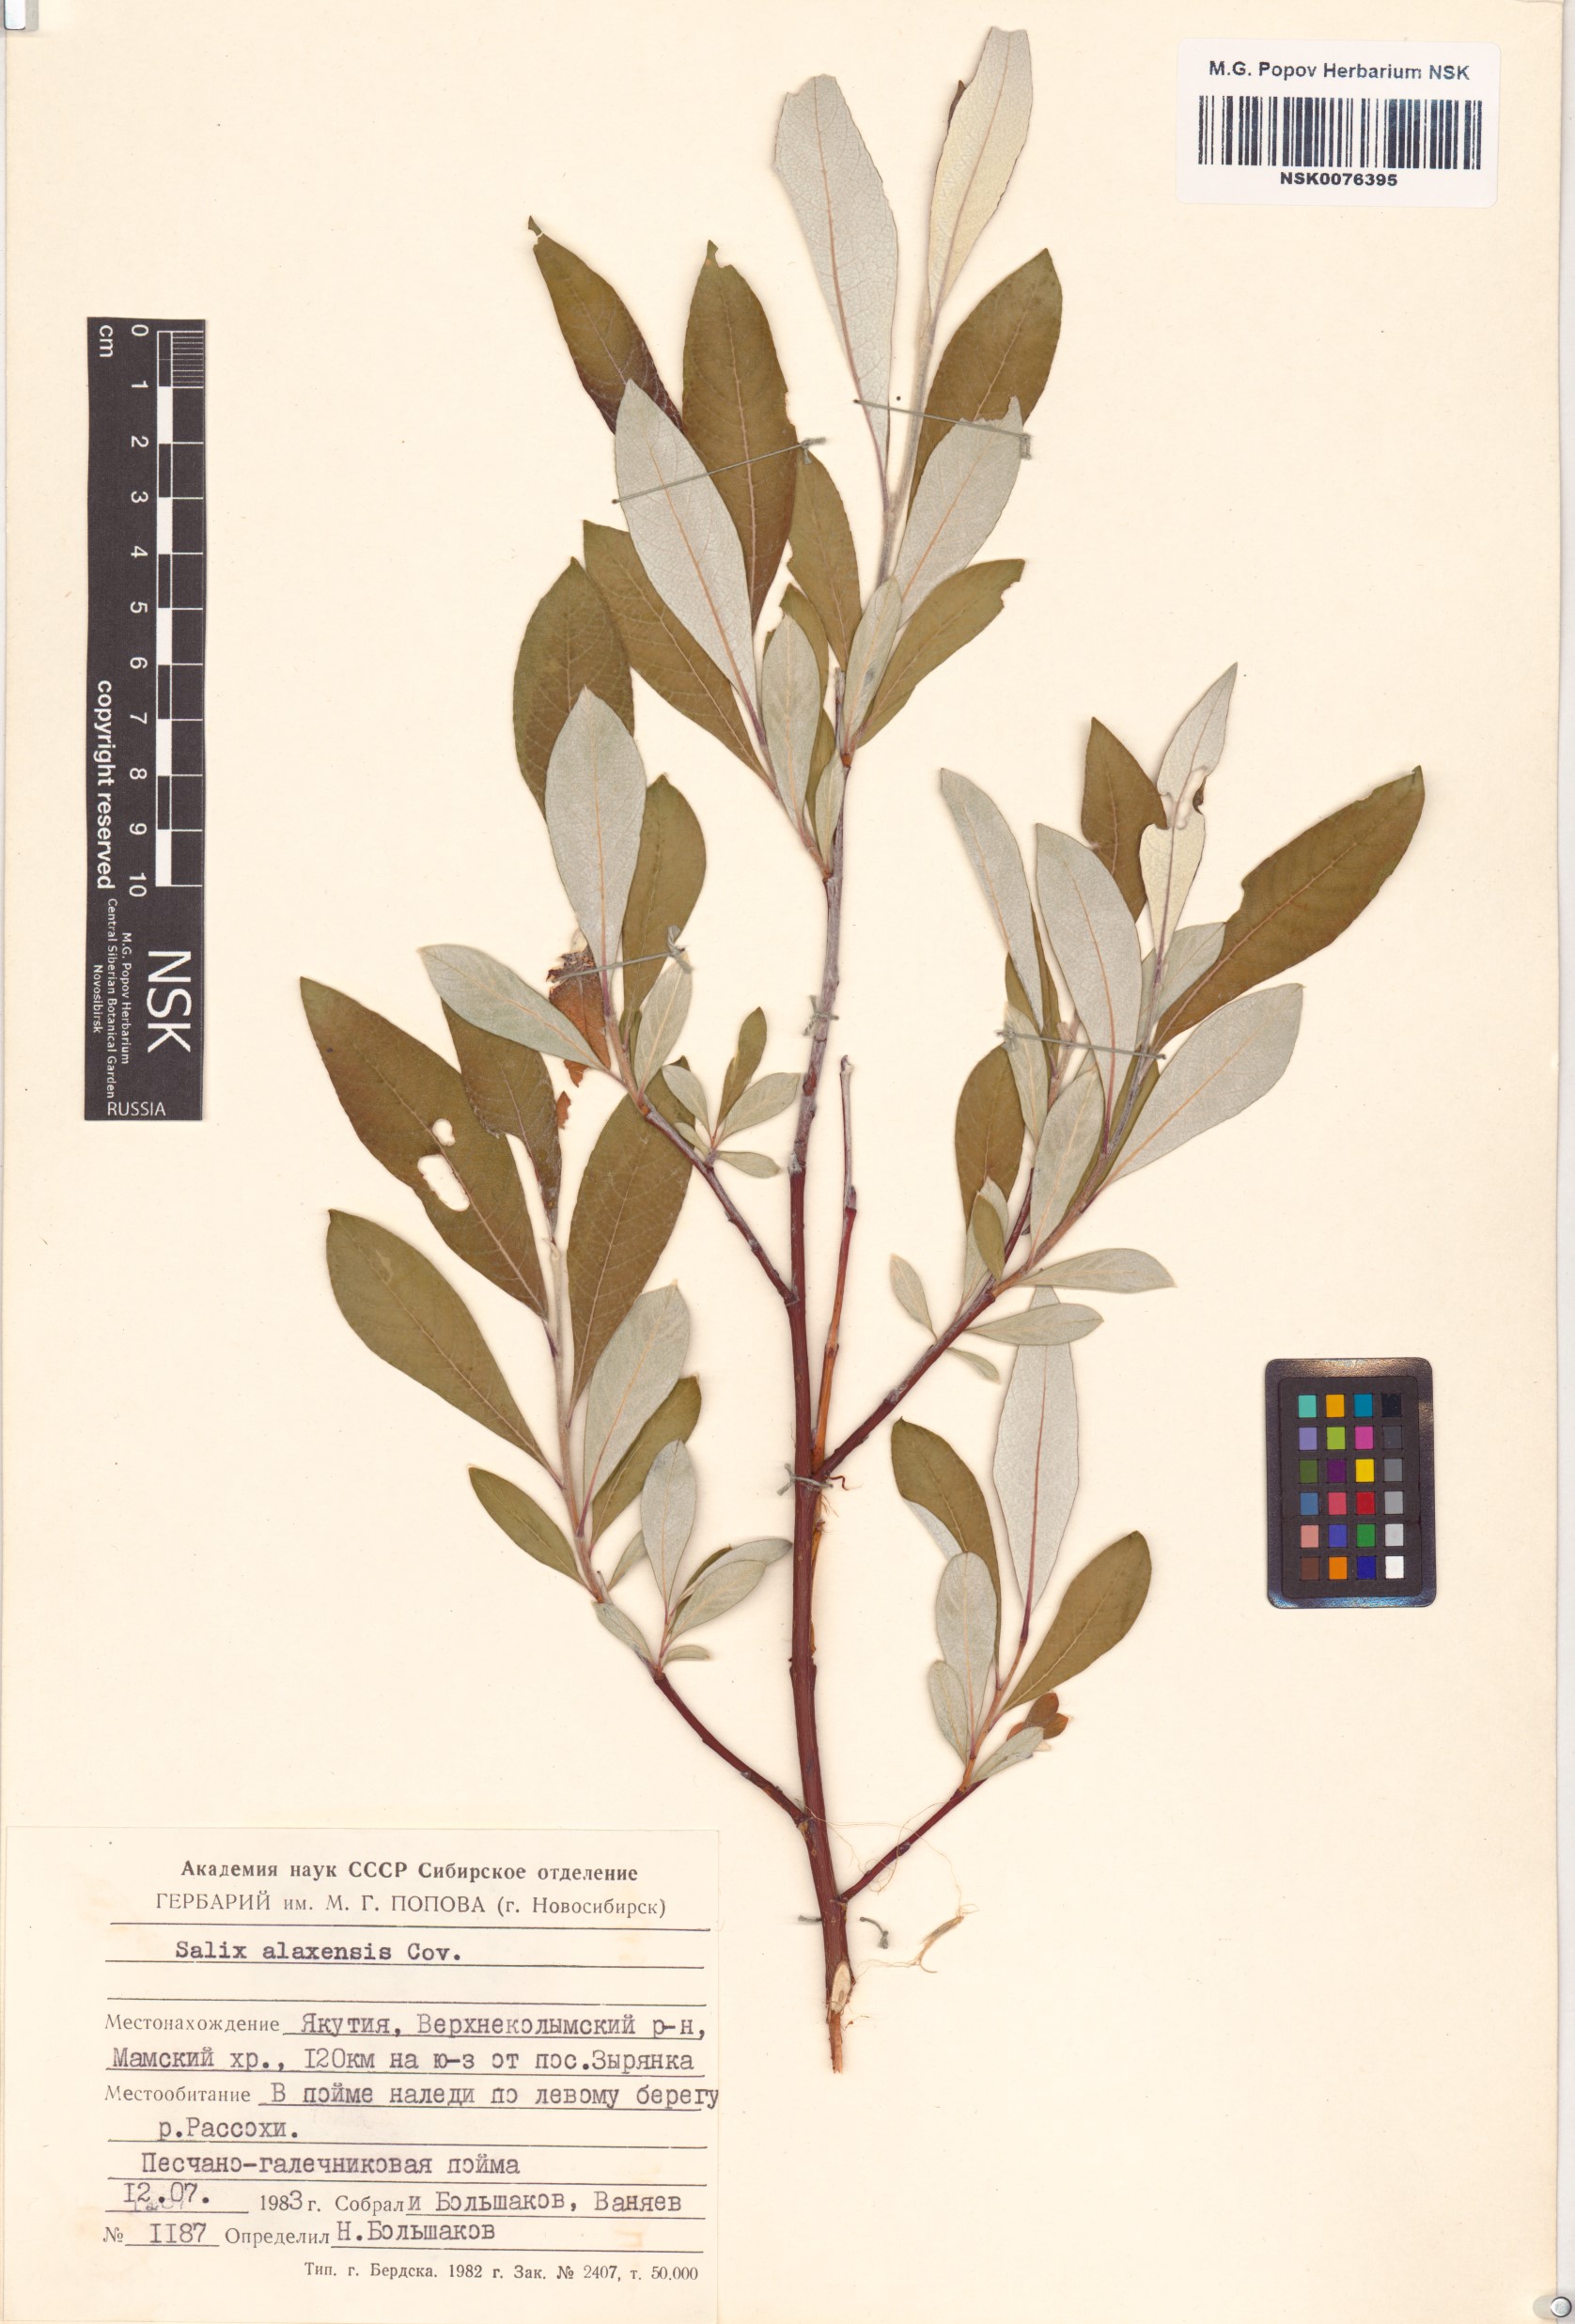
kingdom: Plantae
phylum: Tracheophyta
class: Magnoliopsida
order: Malpighiales
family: Salicaceae
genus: Salix
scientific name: Salix alaxensis
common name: Feltleaf willow
